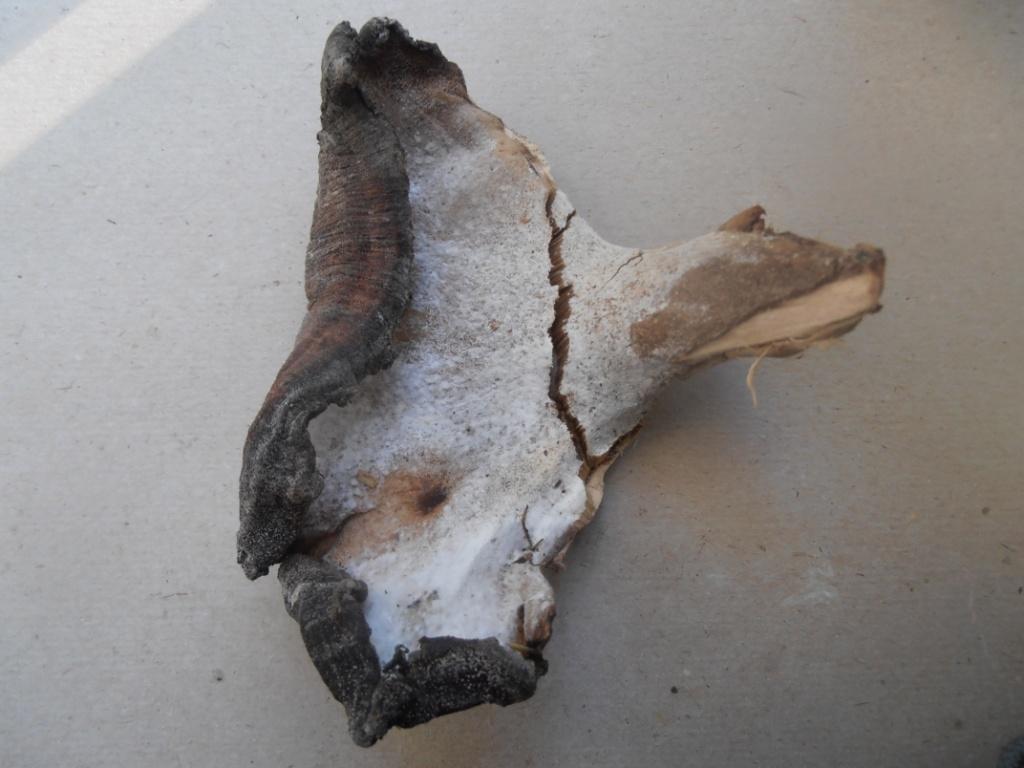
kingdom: Fungi
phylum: Basidiomycota
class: Agaricomycetes
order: Polyporales
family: Meripilaceae
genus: Meripilus
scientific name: Meripilus giganteus
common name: kæmpeporesvamp
